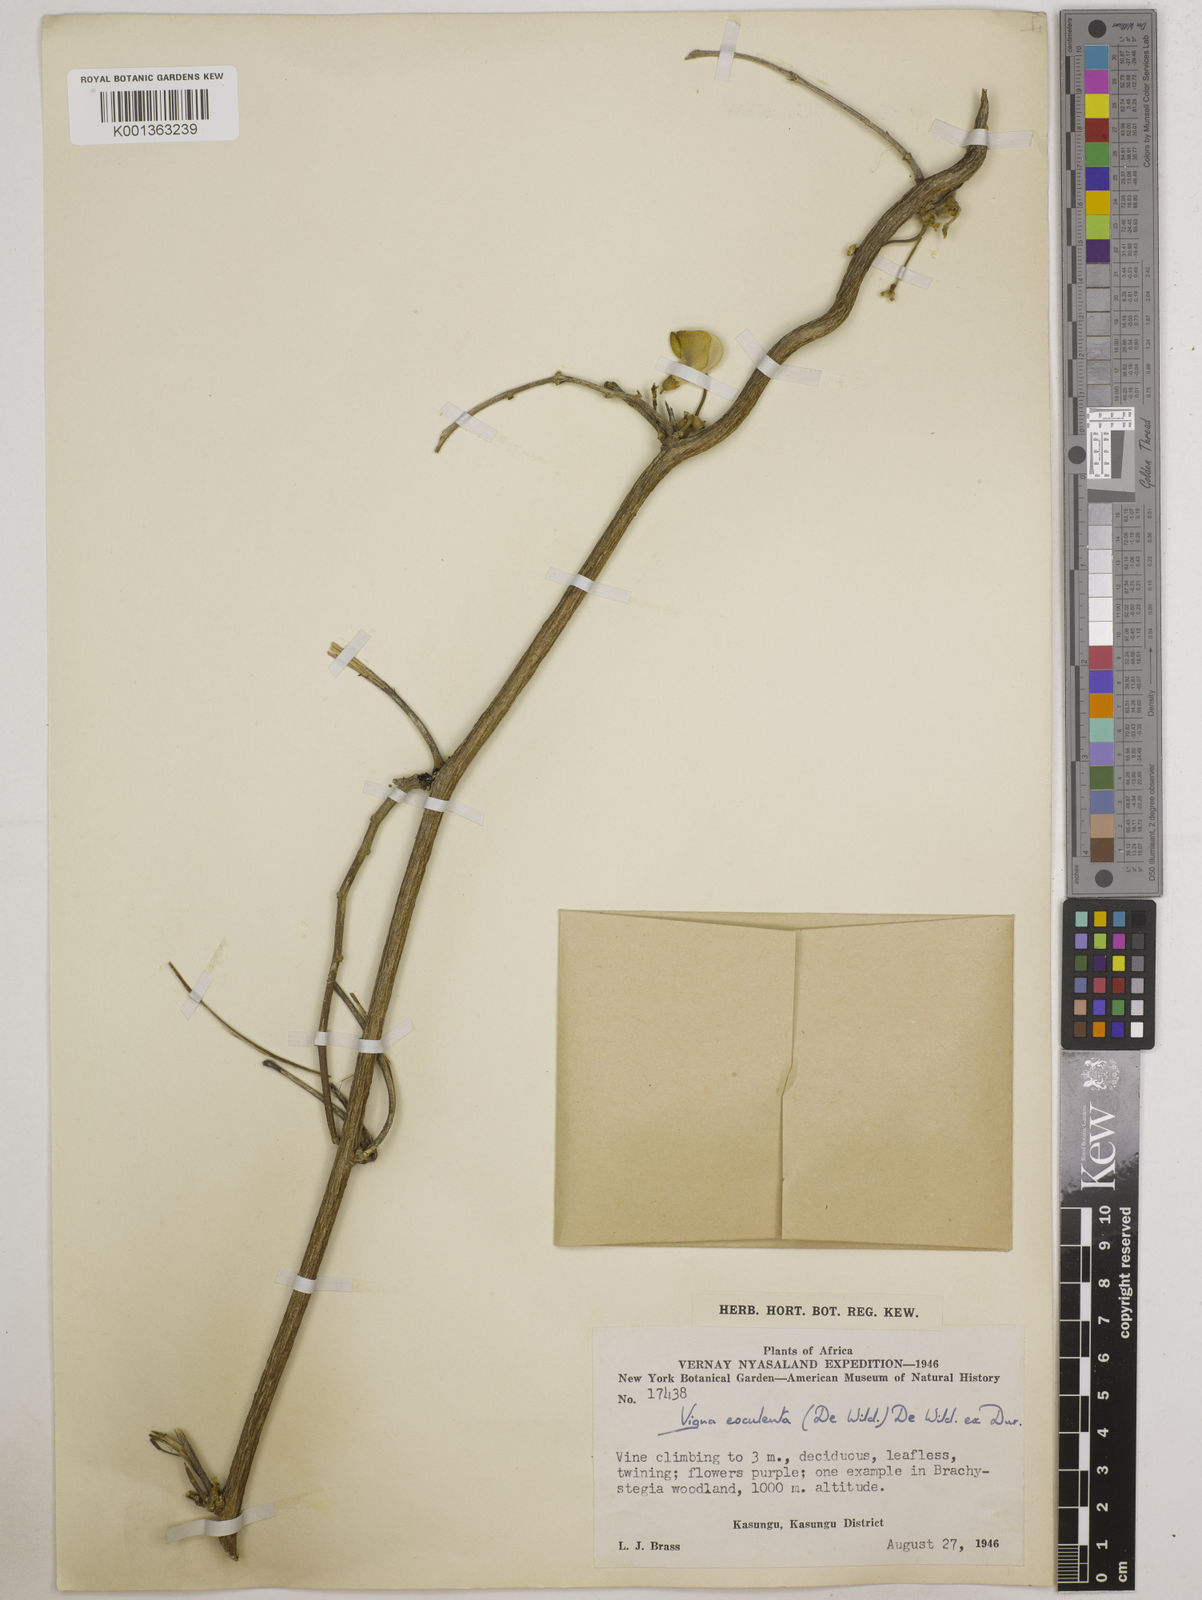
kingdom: Plantae
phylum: Tracheophyta
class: Magnoliopsida
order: Fabales
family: Fabaceae
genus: Vigna
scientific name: Vigna
